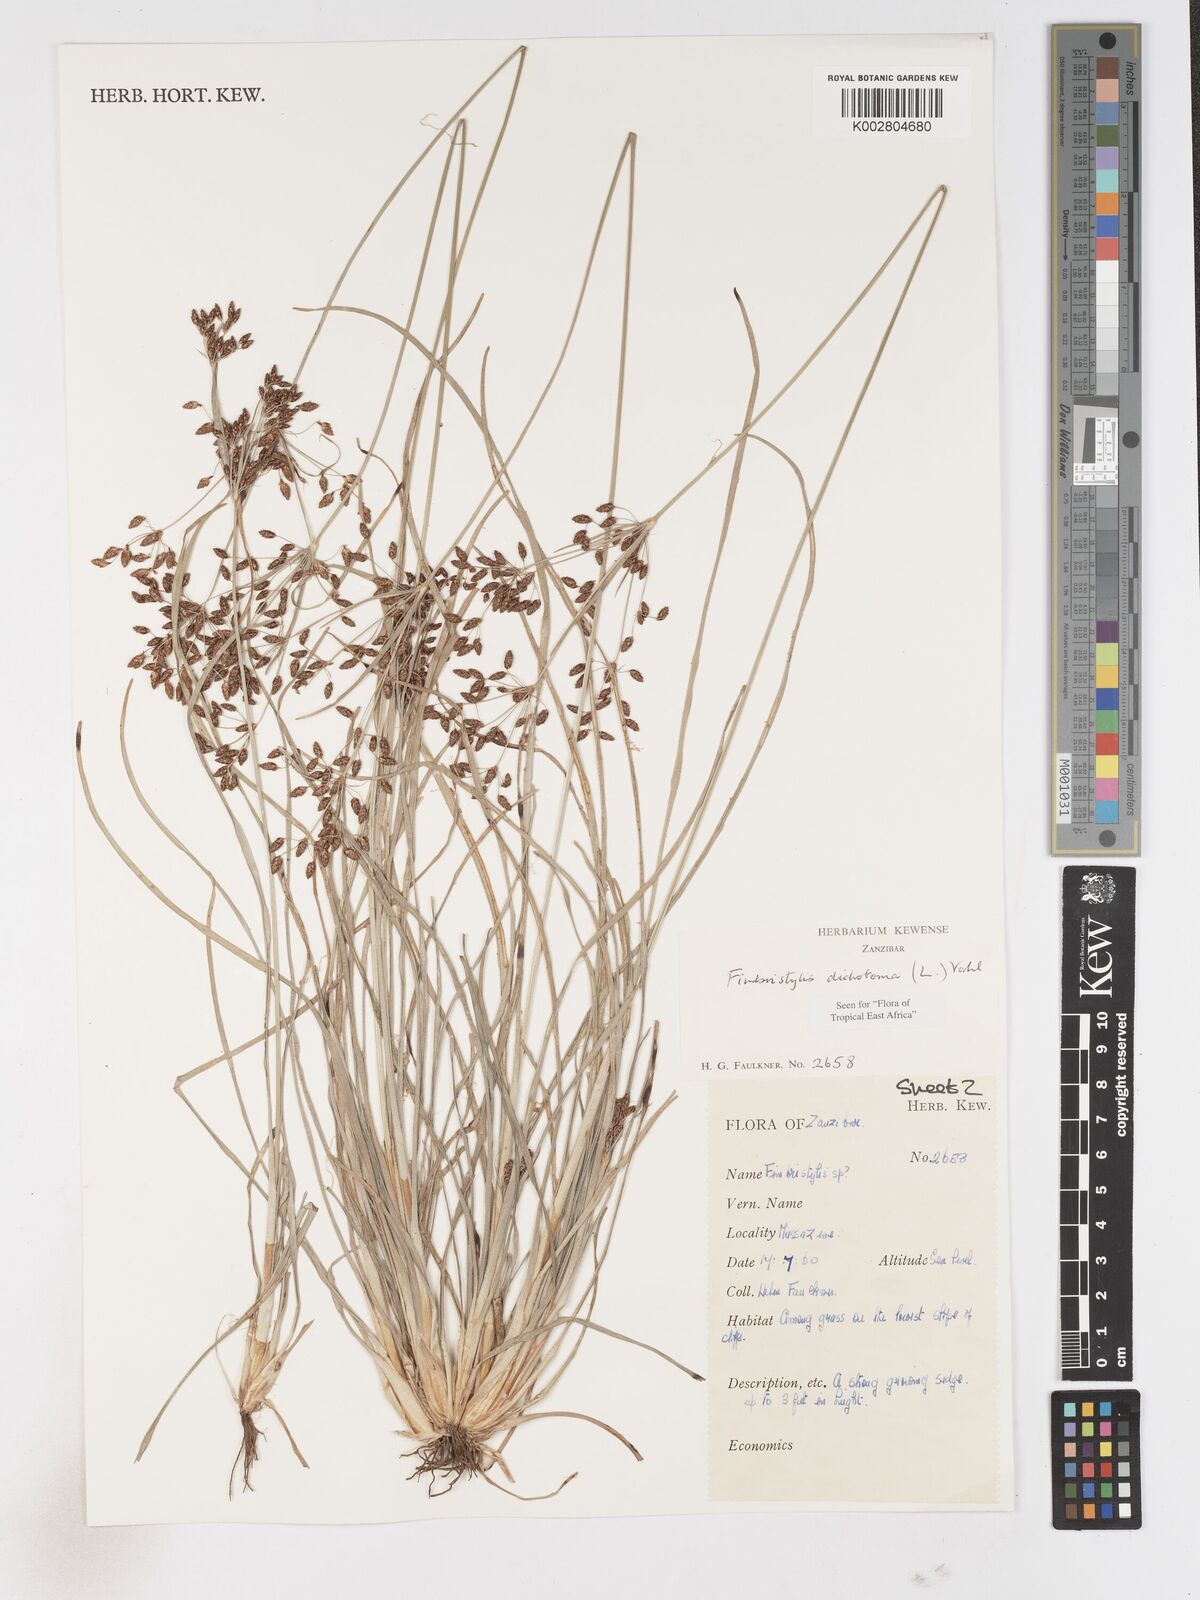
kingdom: Plantae
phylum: Tracheophyta
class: Liliopsida
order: Poales
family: Cyperaceae
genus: Fimbristylis
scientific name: Fimbristylis dichotoma
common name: Forked fimbry
